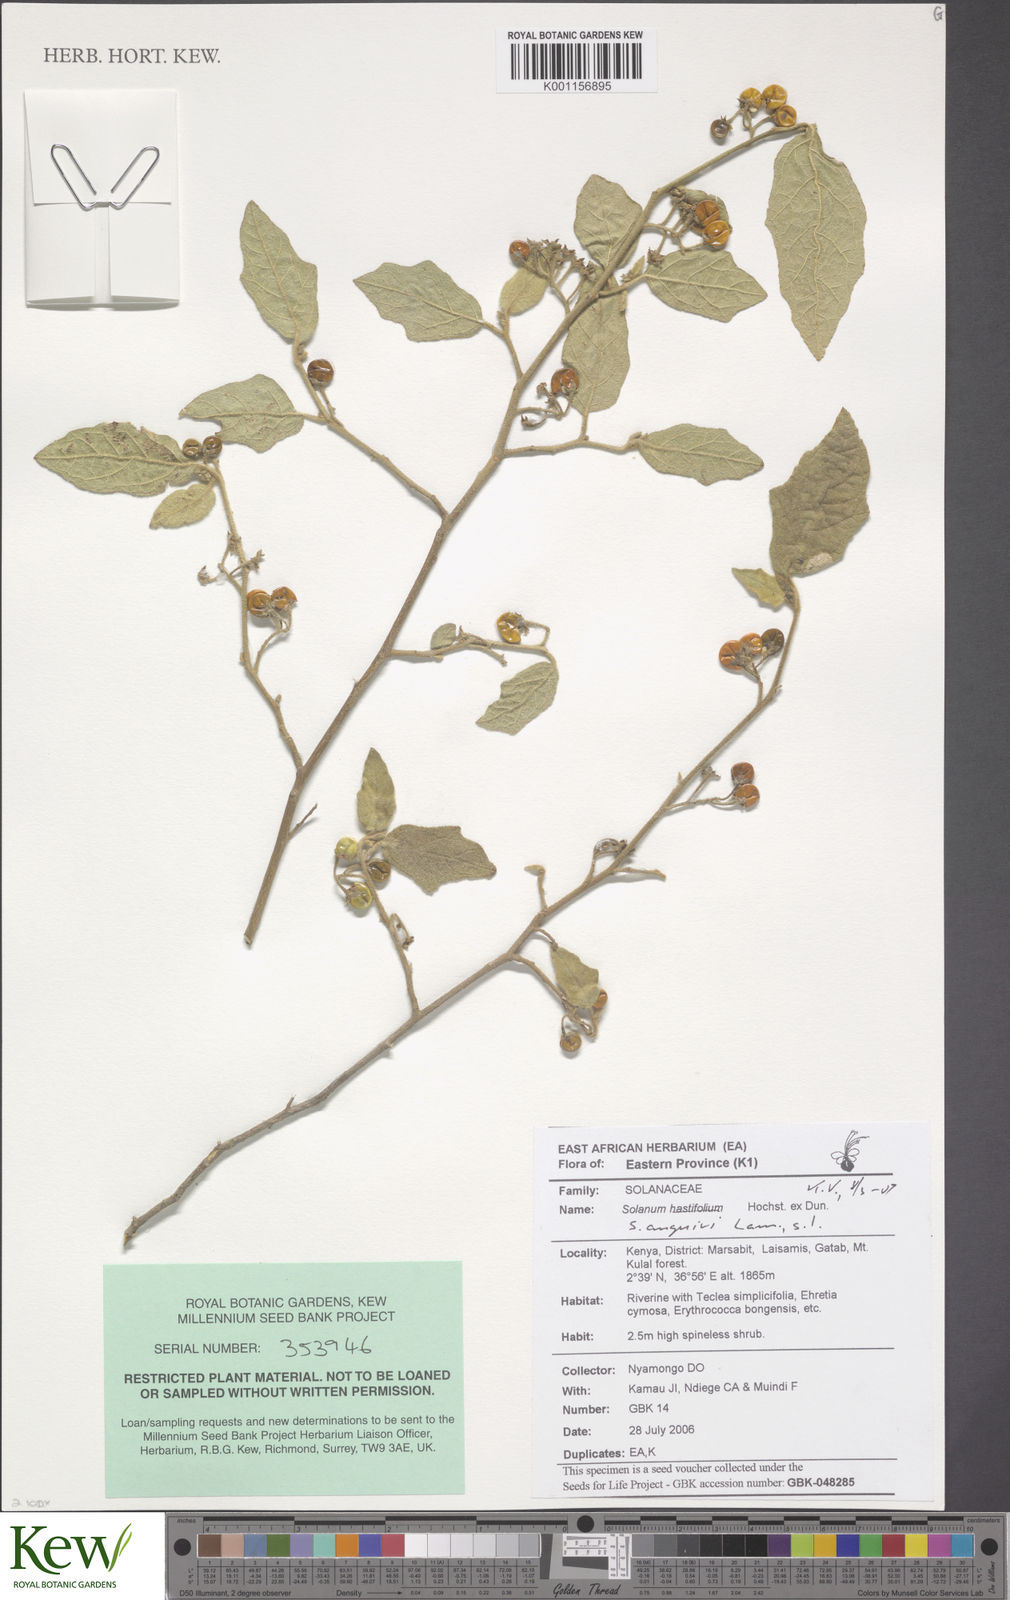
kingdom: Plantae
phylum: Tracheophyta
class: Magnoliopsida
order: Solanales
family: Solanaceae
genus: Solanum
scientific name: Solanum anguivi
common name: Forest bitterberry
